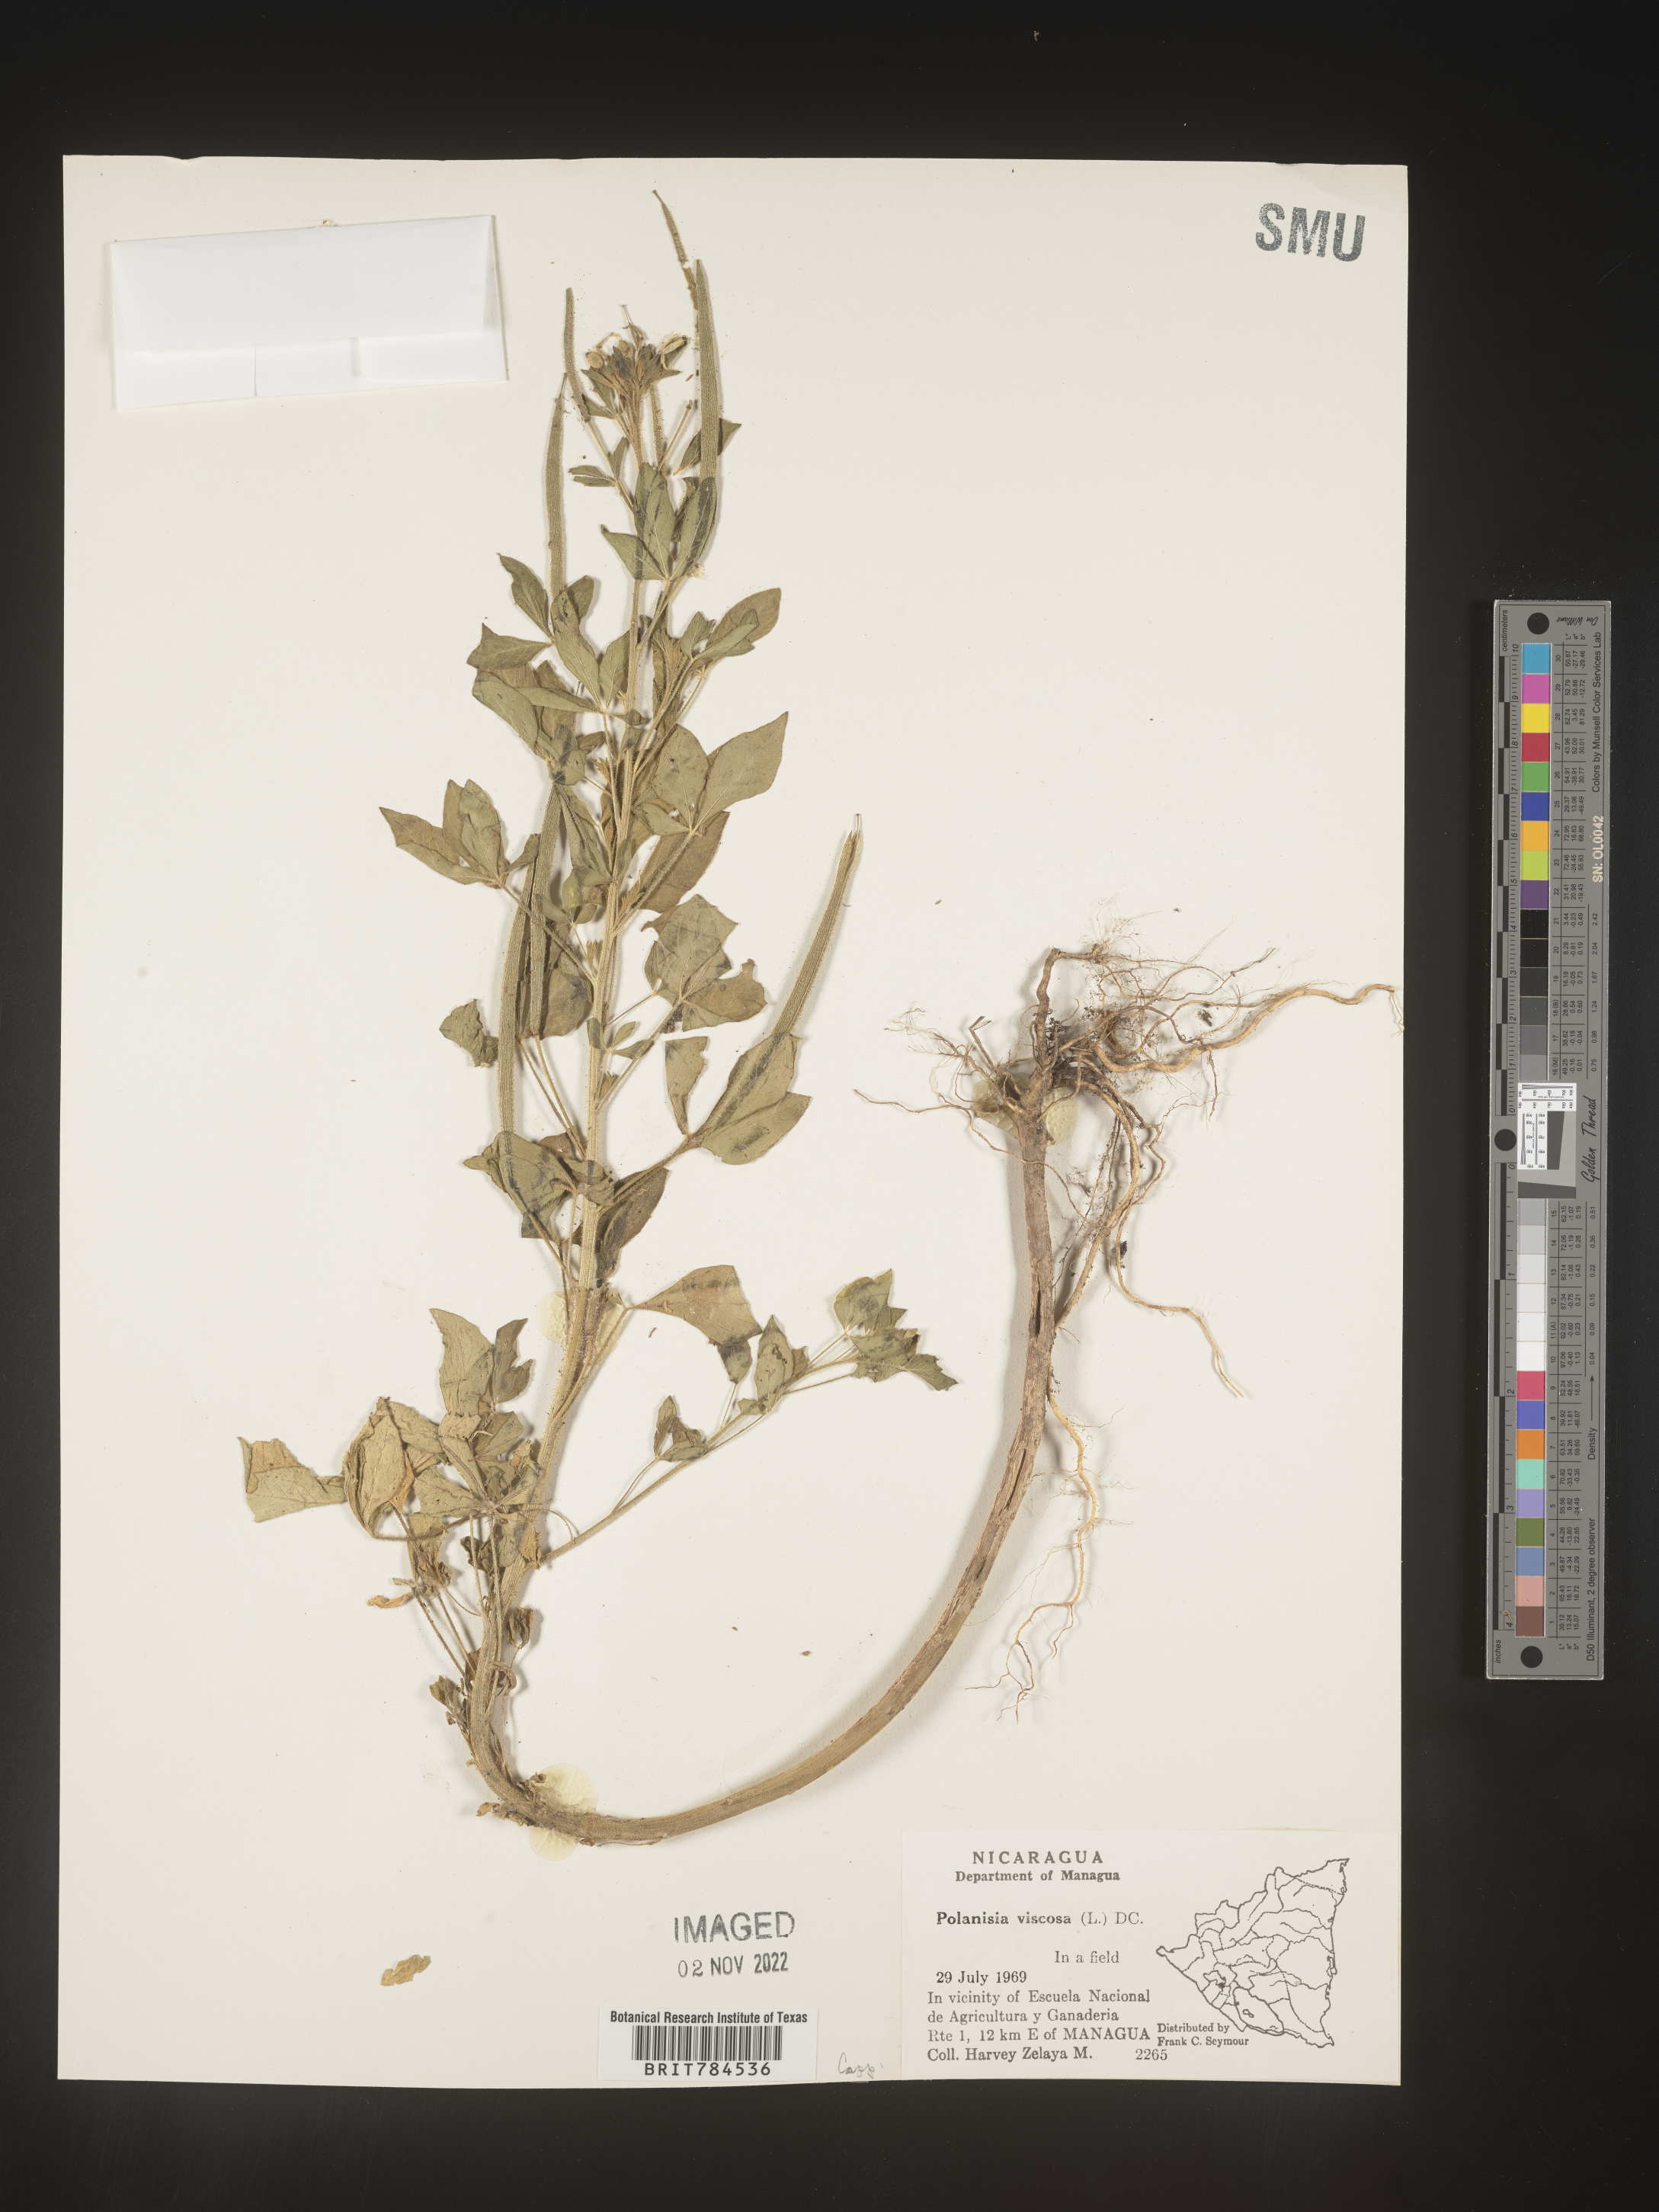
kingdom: Plantae
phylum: Tracheophyta
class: Magnoliopsida
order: Brassicales
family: Cleomaceae
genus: Polanisia
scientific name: Polanisia
